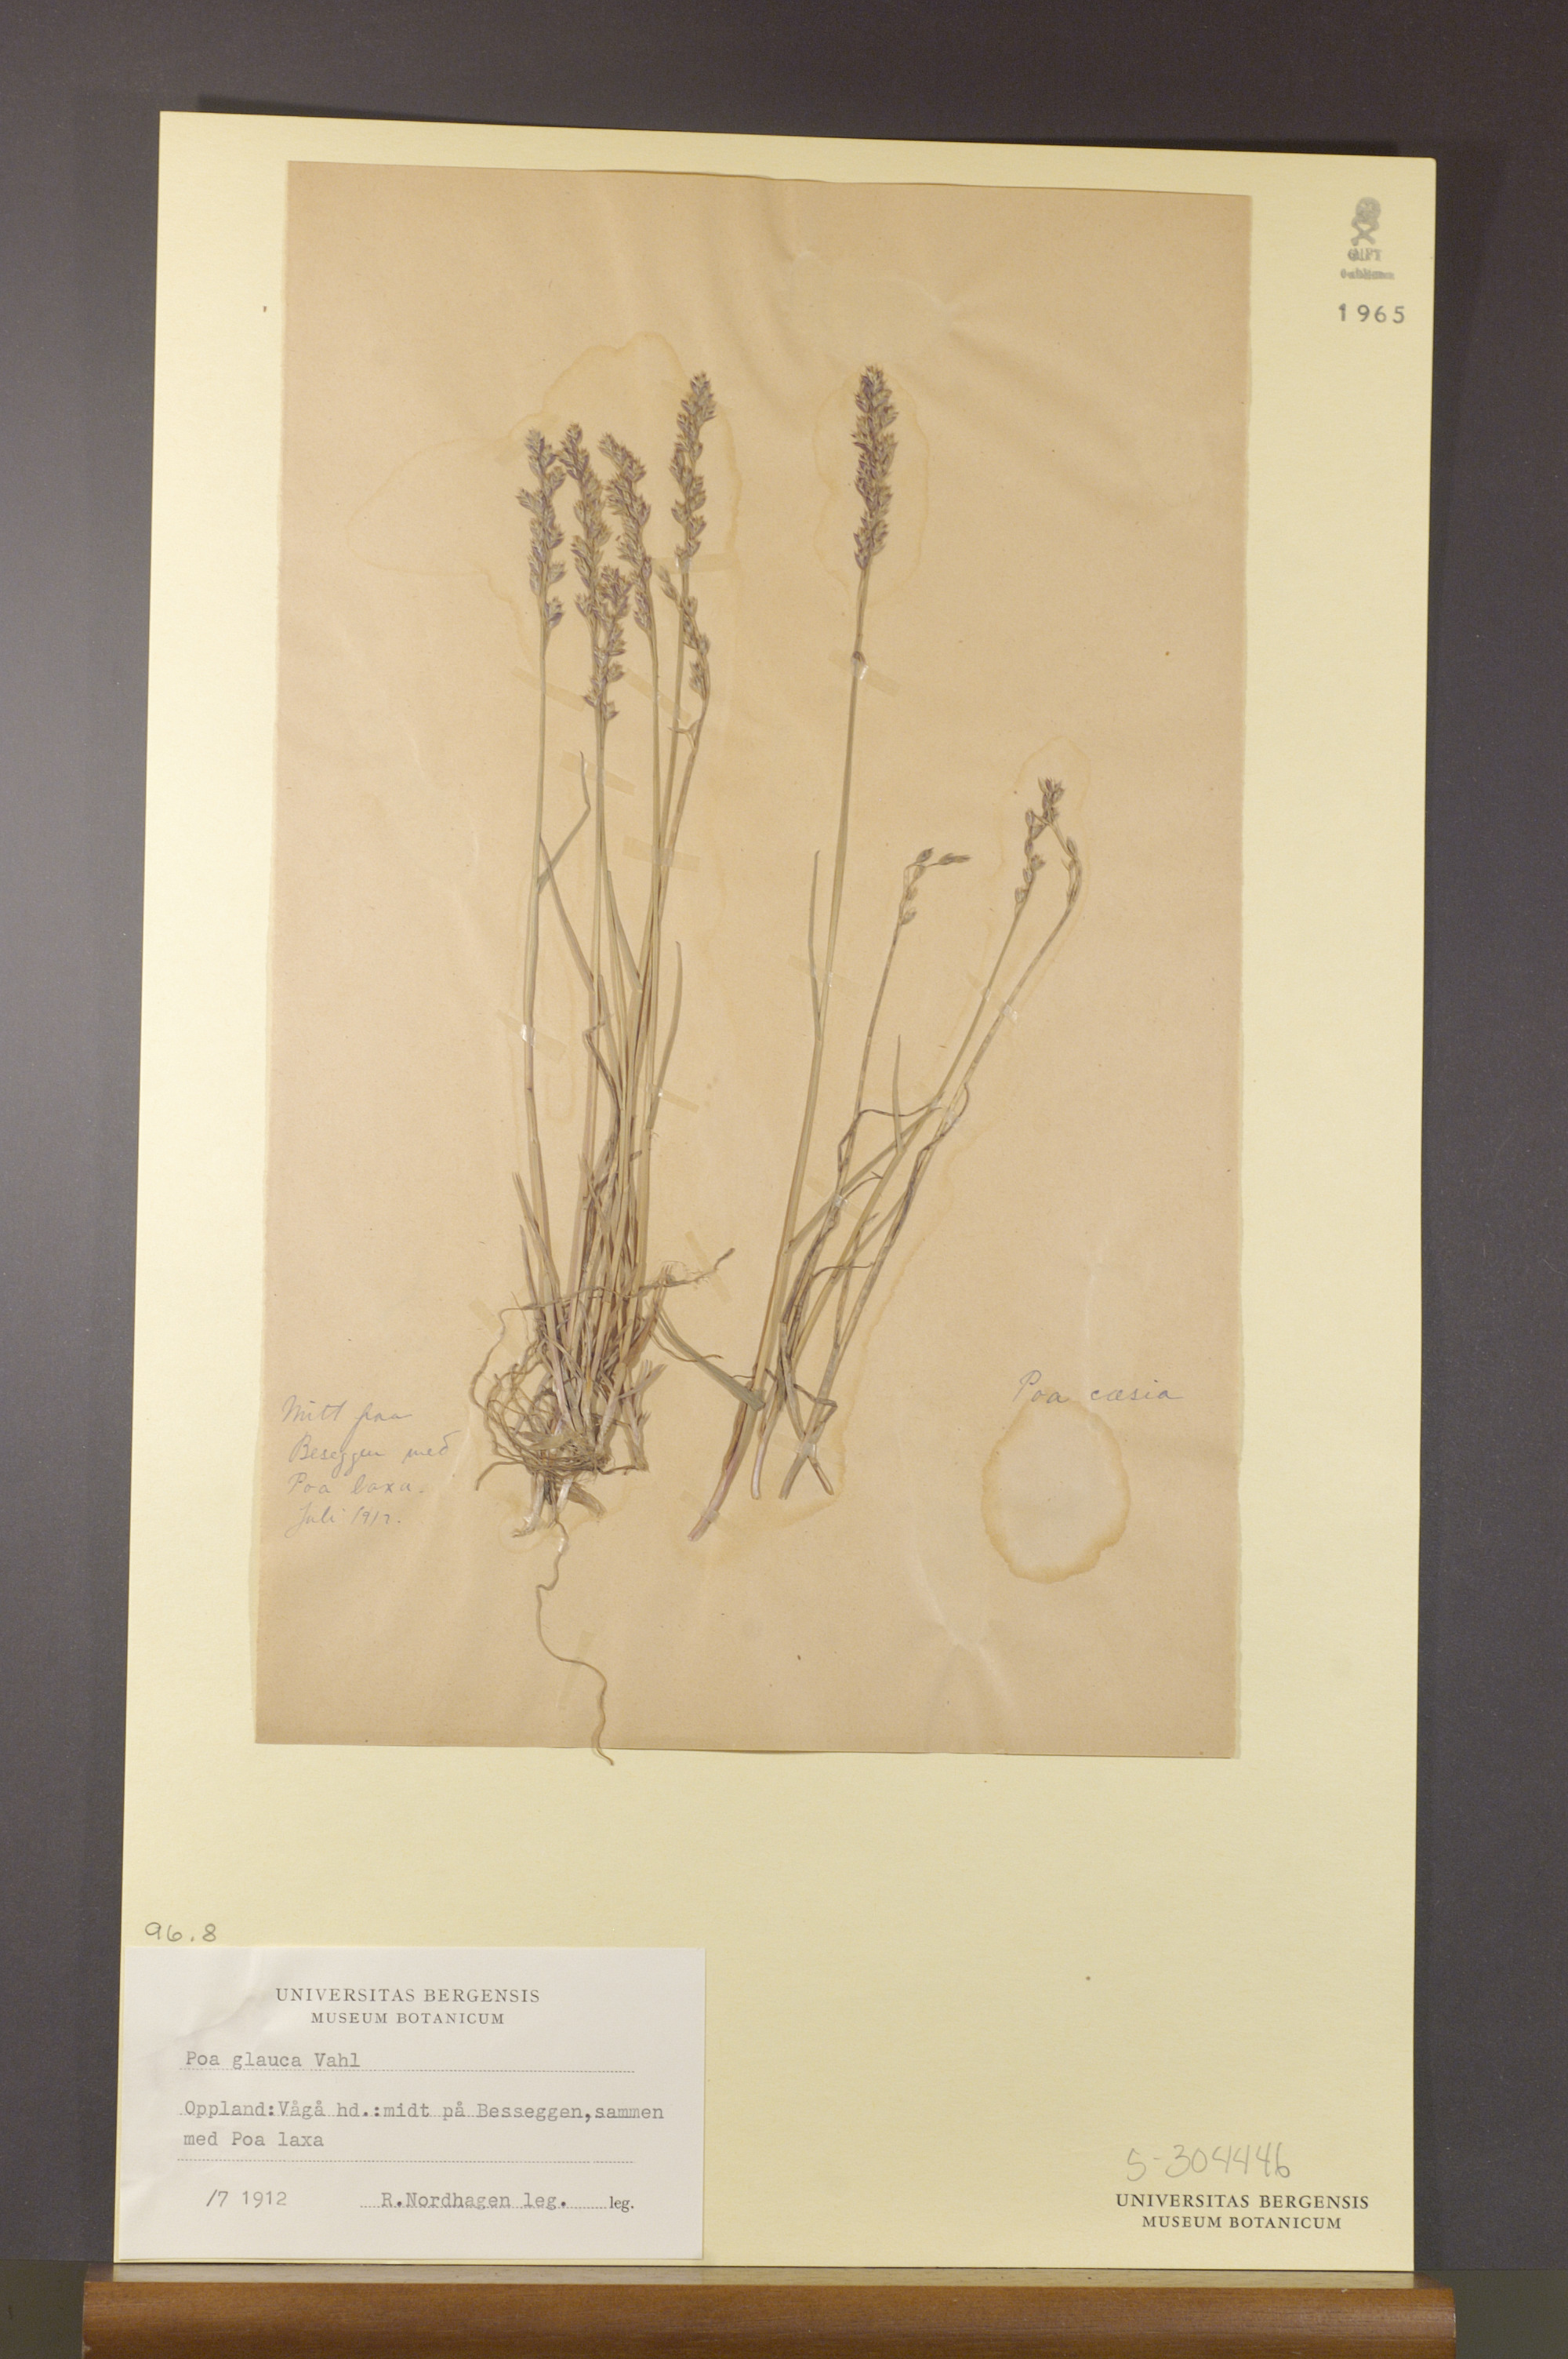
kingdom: Plantae
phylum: Tracheophyta
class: Liliopsida
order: Poales
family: Poaceae
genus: Poa
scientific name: Poa glauca
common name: Glaucous bluegrass
